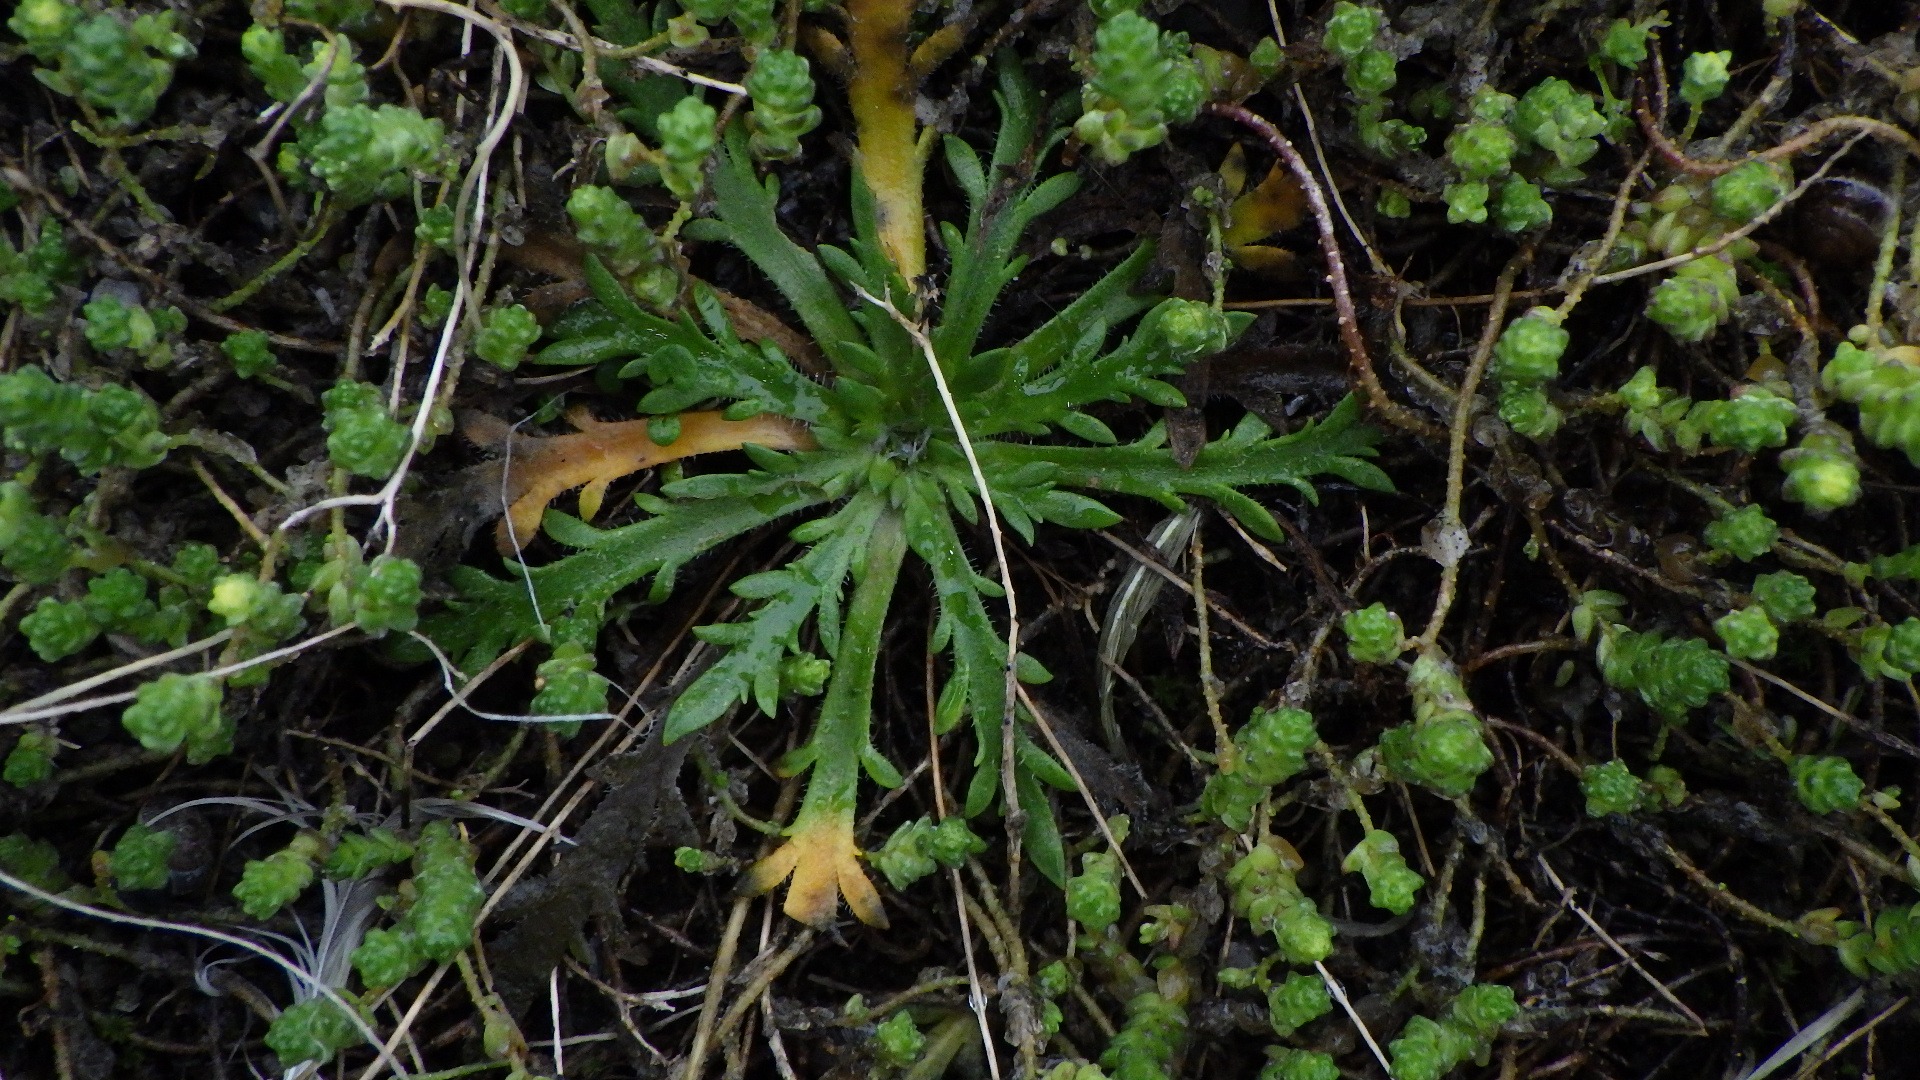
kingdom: Plantae
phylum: Tracheophyta
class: Magnoliopsida
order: Lamiales
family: Plantaginaceae
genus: Plantago
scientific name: Plantago coronopus
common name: Fliget vejbred
